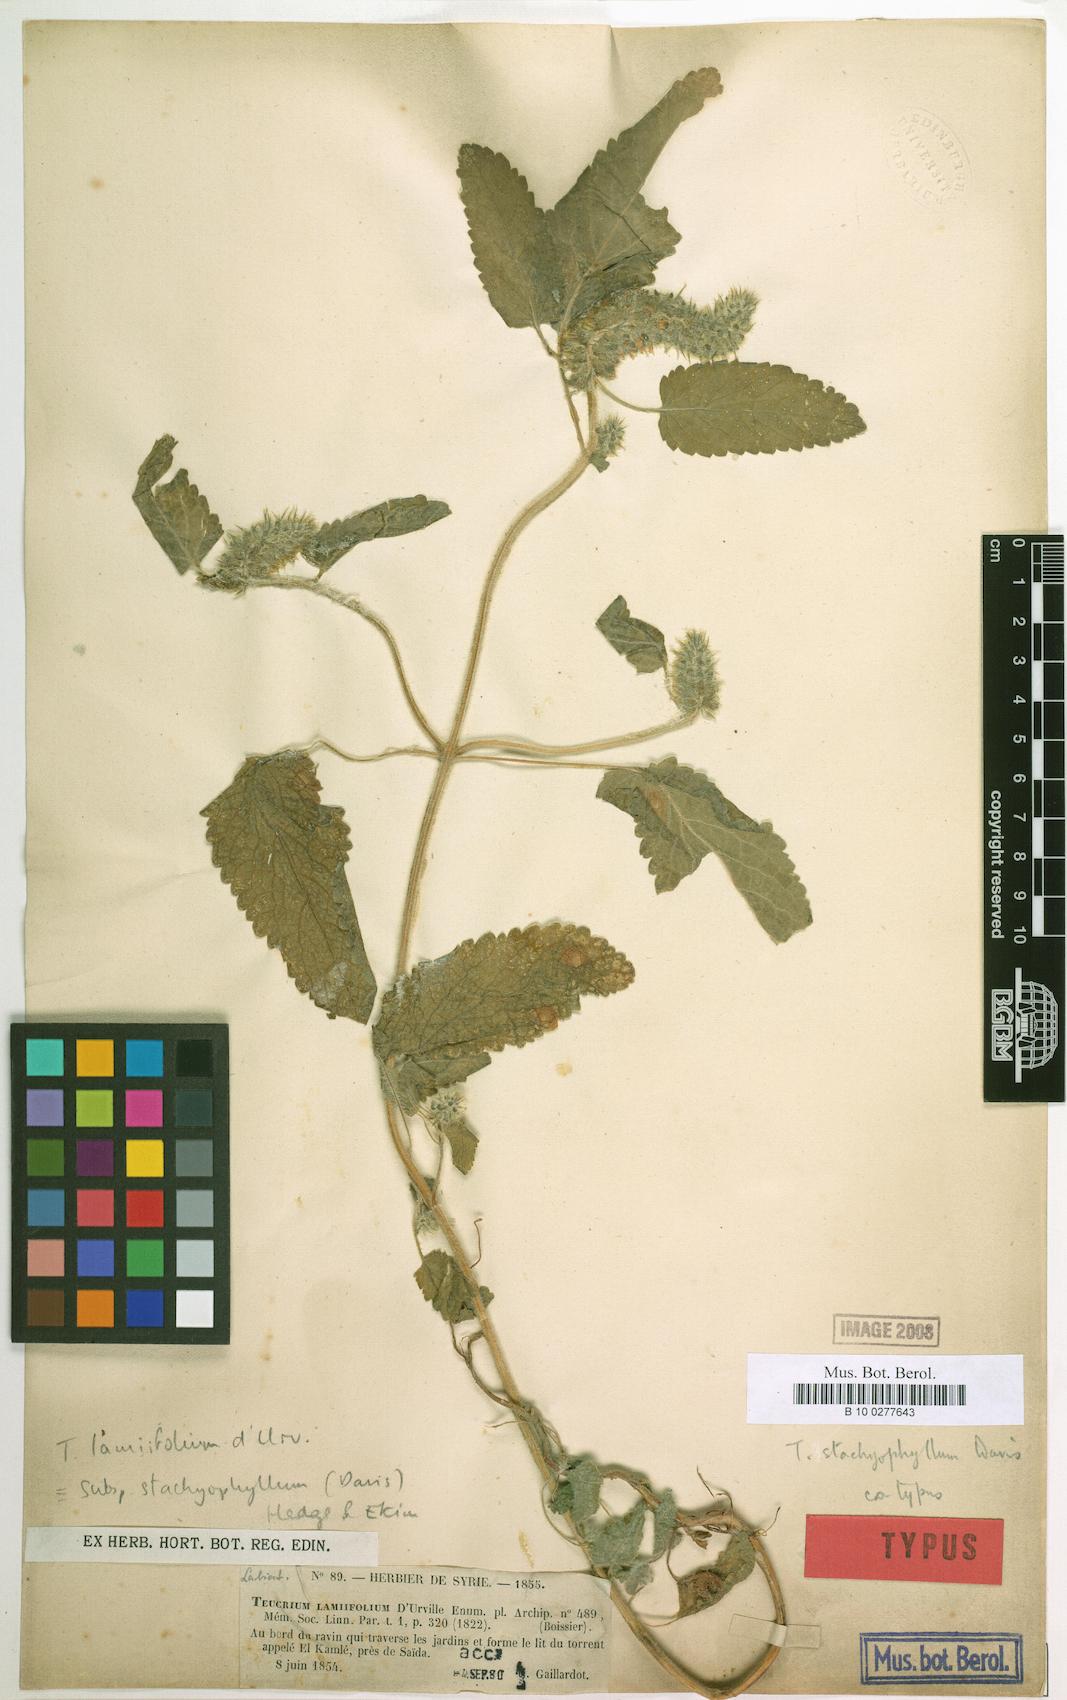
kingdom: Plantae
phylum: Tracheophyta
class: Magnoliopsida
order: Lamiales
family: Lamiaceae
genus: Teucrium
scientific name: Teucrium stachyophyllum
